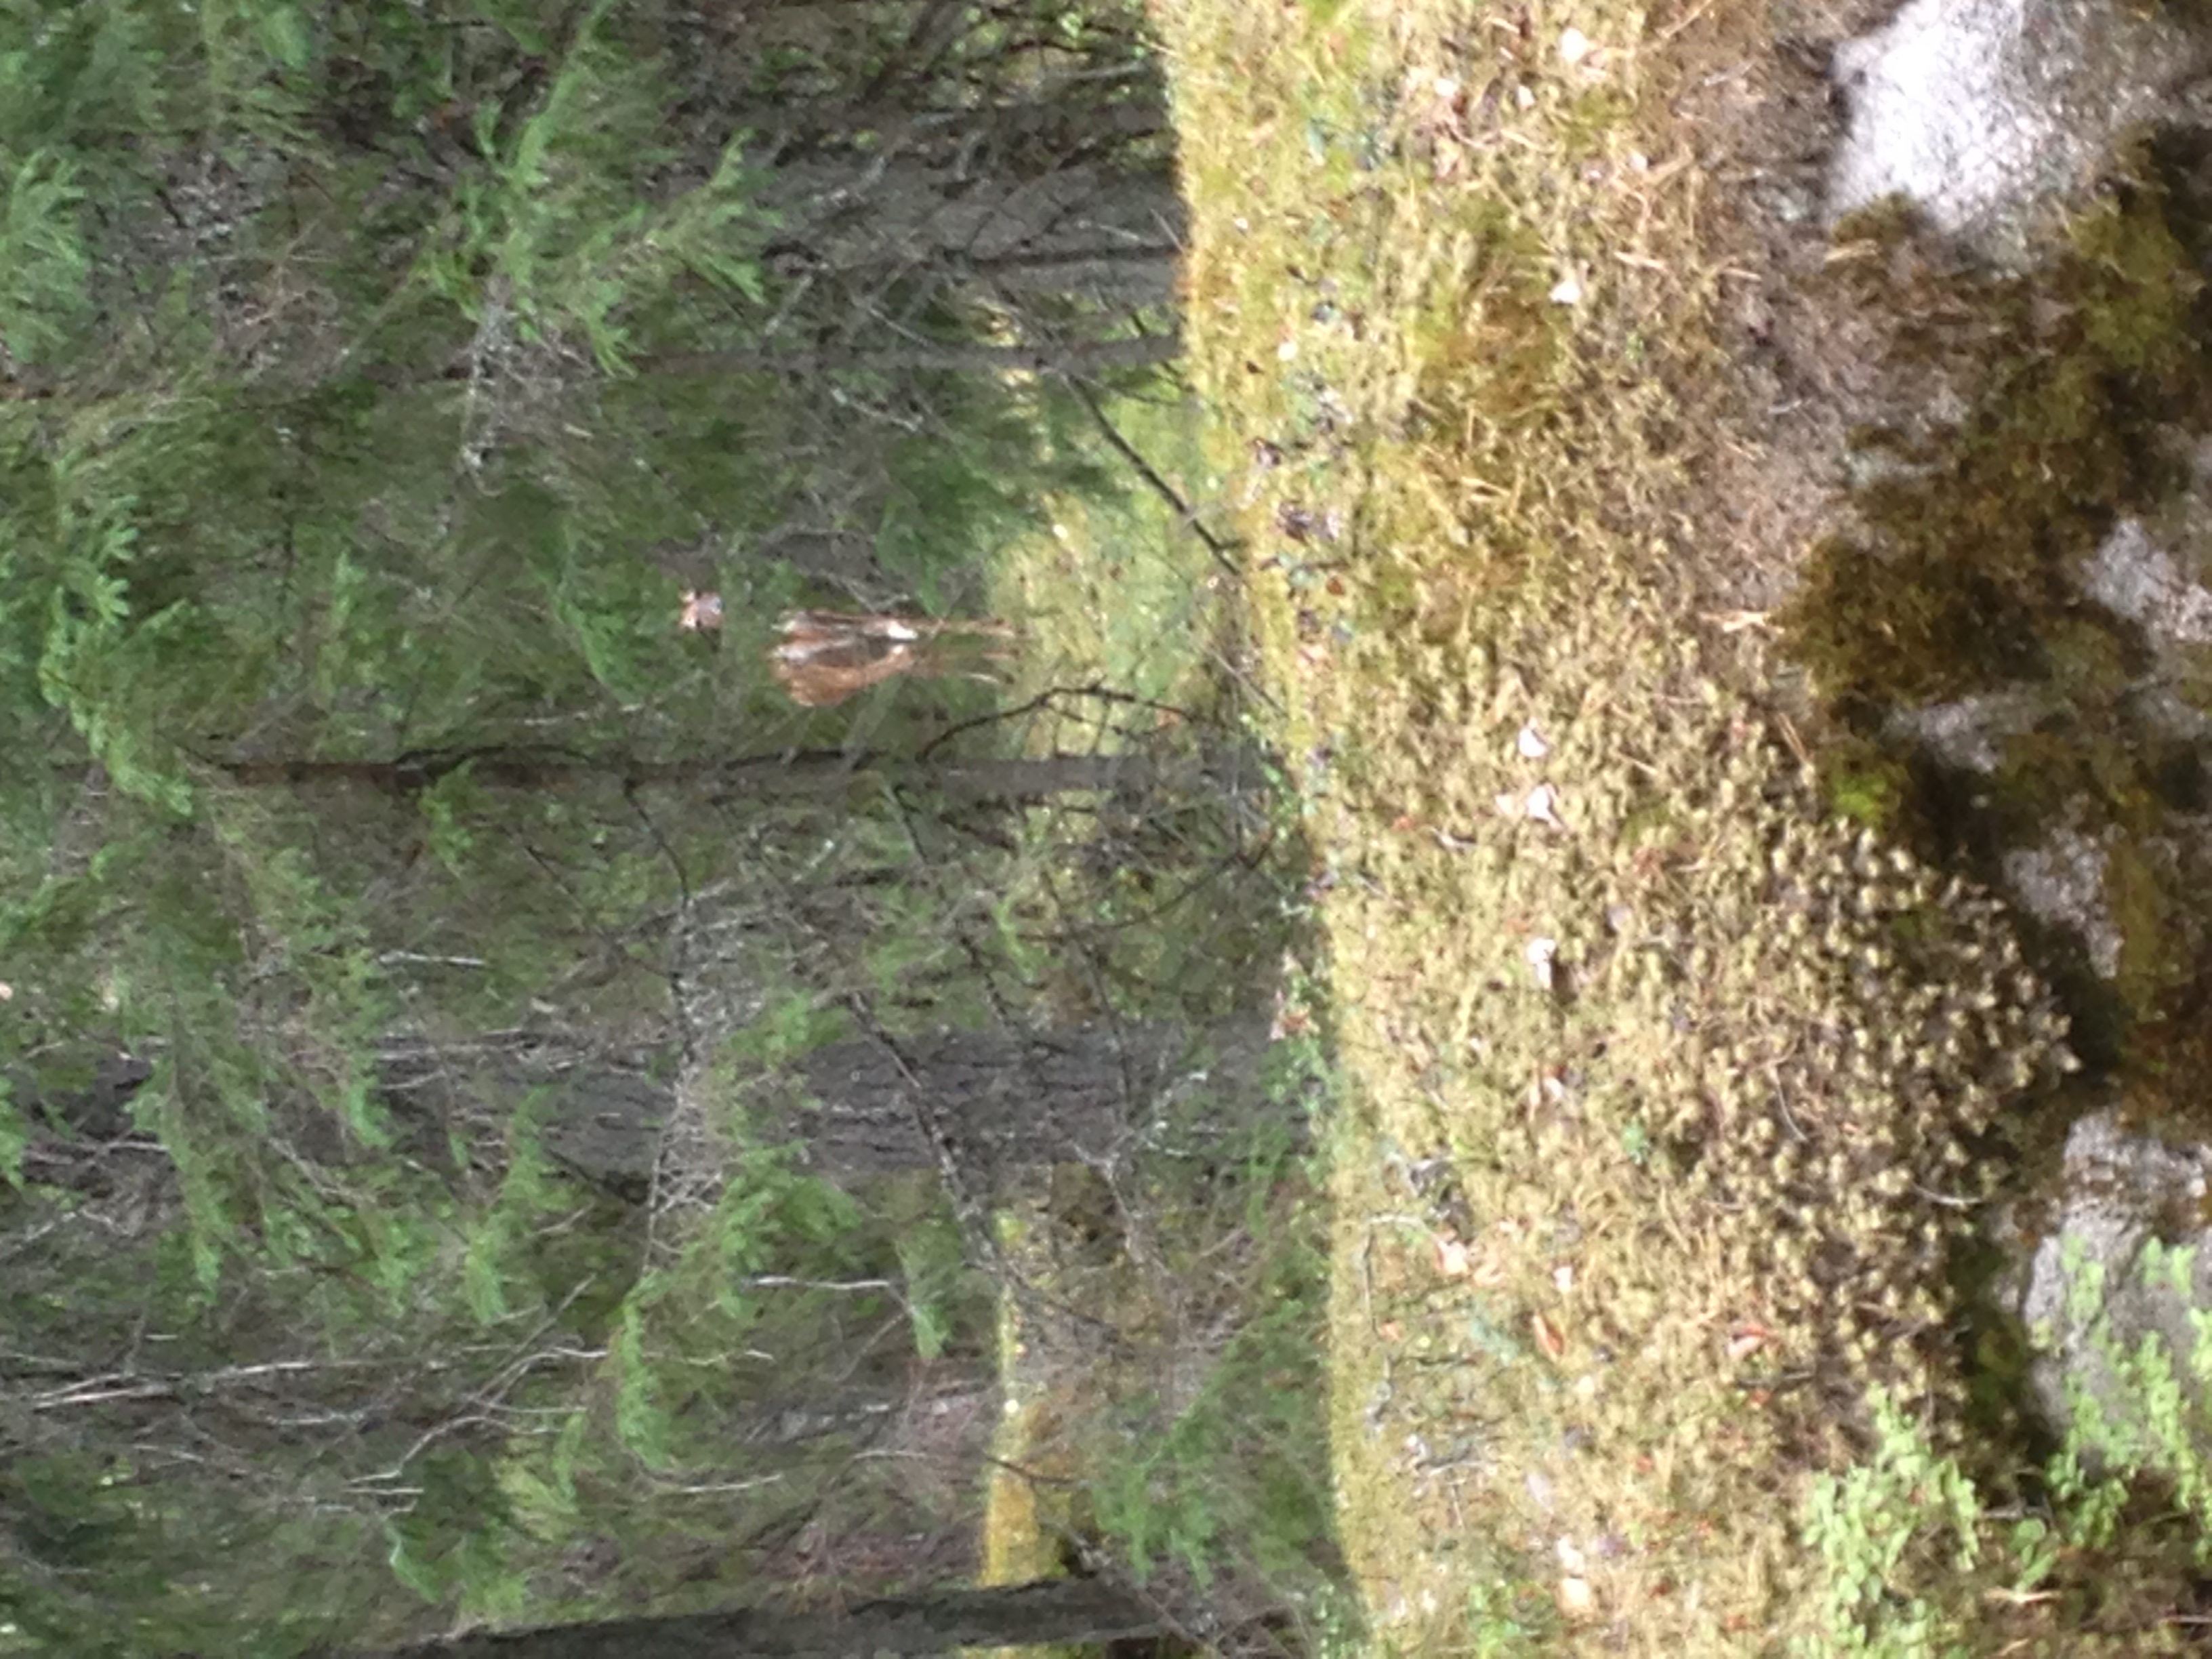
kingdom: Animalia
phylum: Chordata
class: Mammalia
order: Artiodactyla
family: Cervidae
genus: Odocoileus
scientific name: Odocoileus virginianus
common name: White-tailed deer
